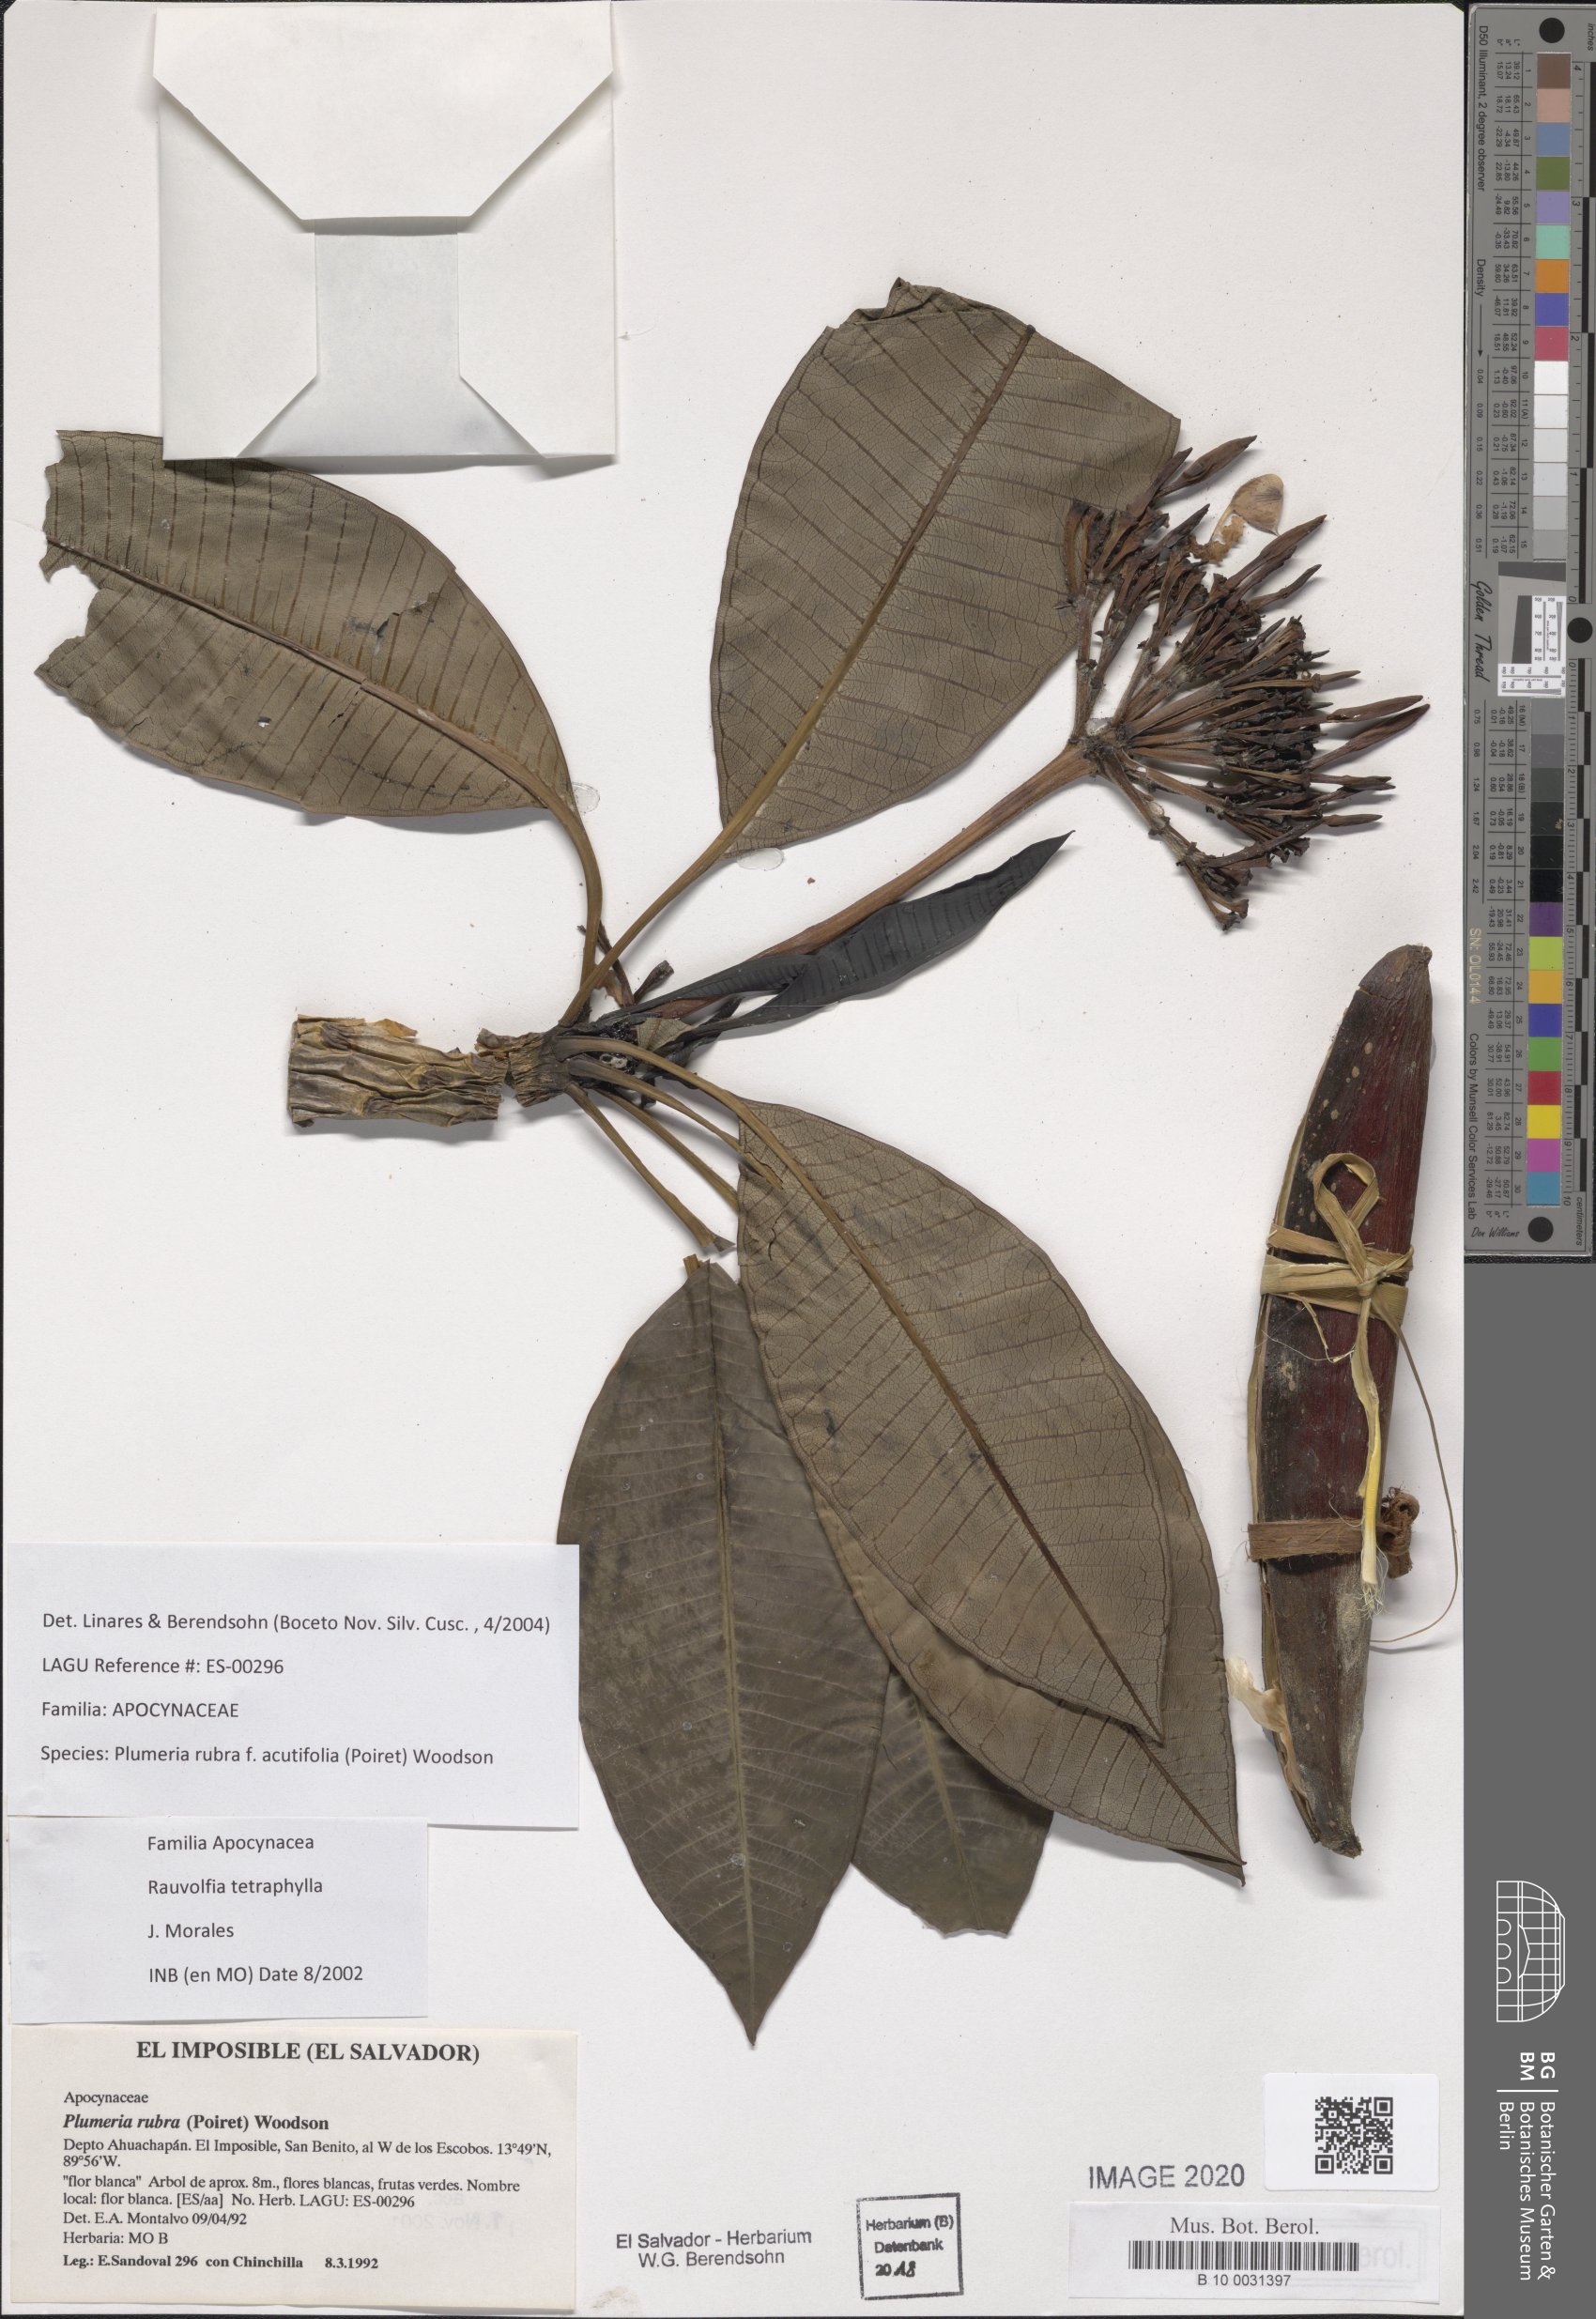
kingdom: Plantae
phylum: Tracheophyta
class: Magnoliopsida
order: Gentianales
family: Apocynaceae
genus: Plumeria
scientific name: Plumeria rubra
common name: Pagoda-tree
